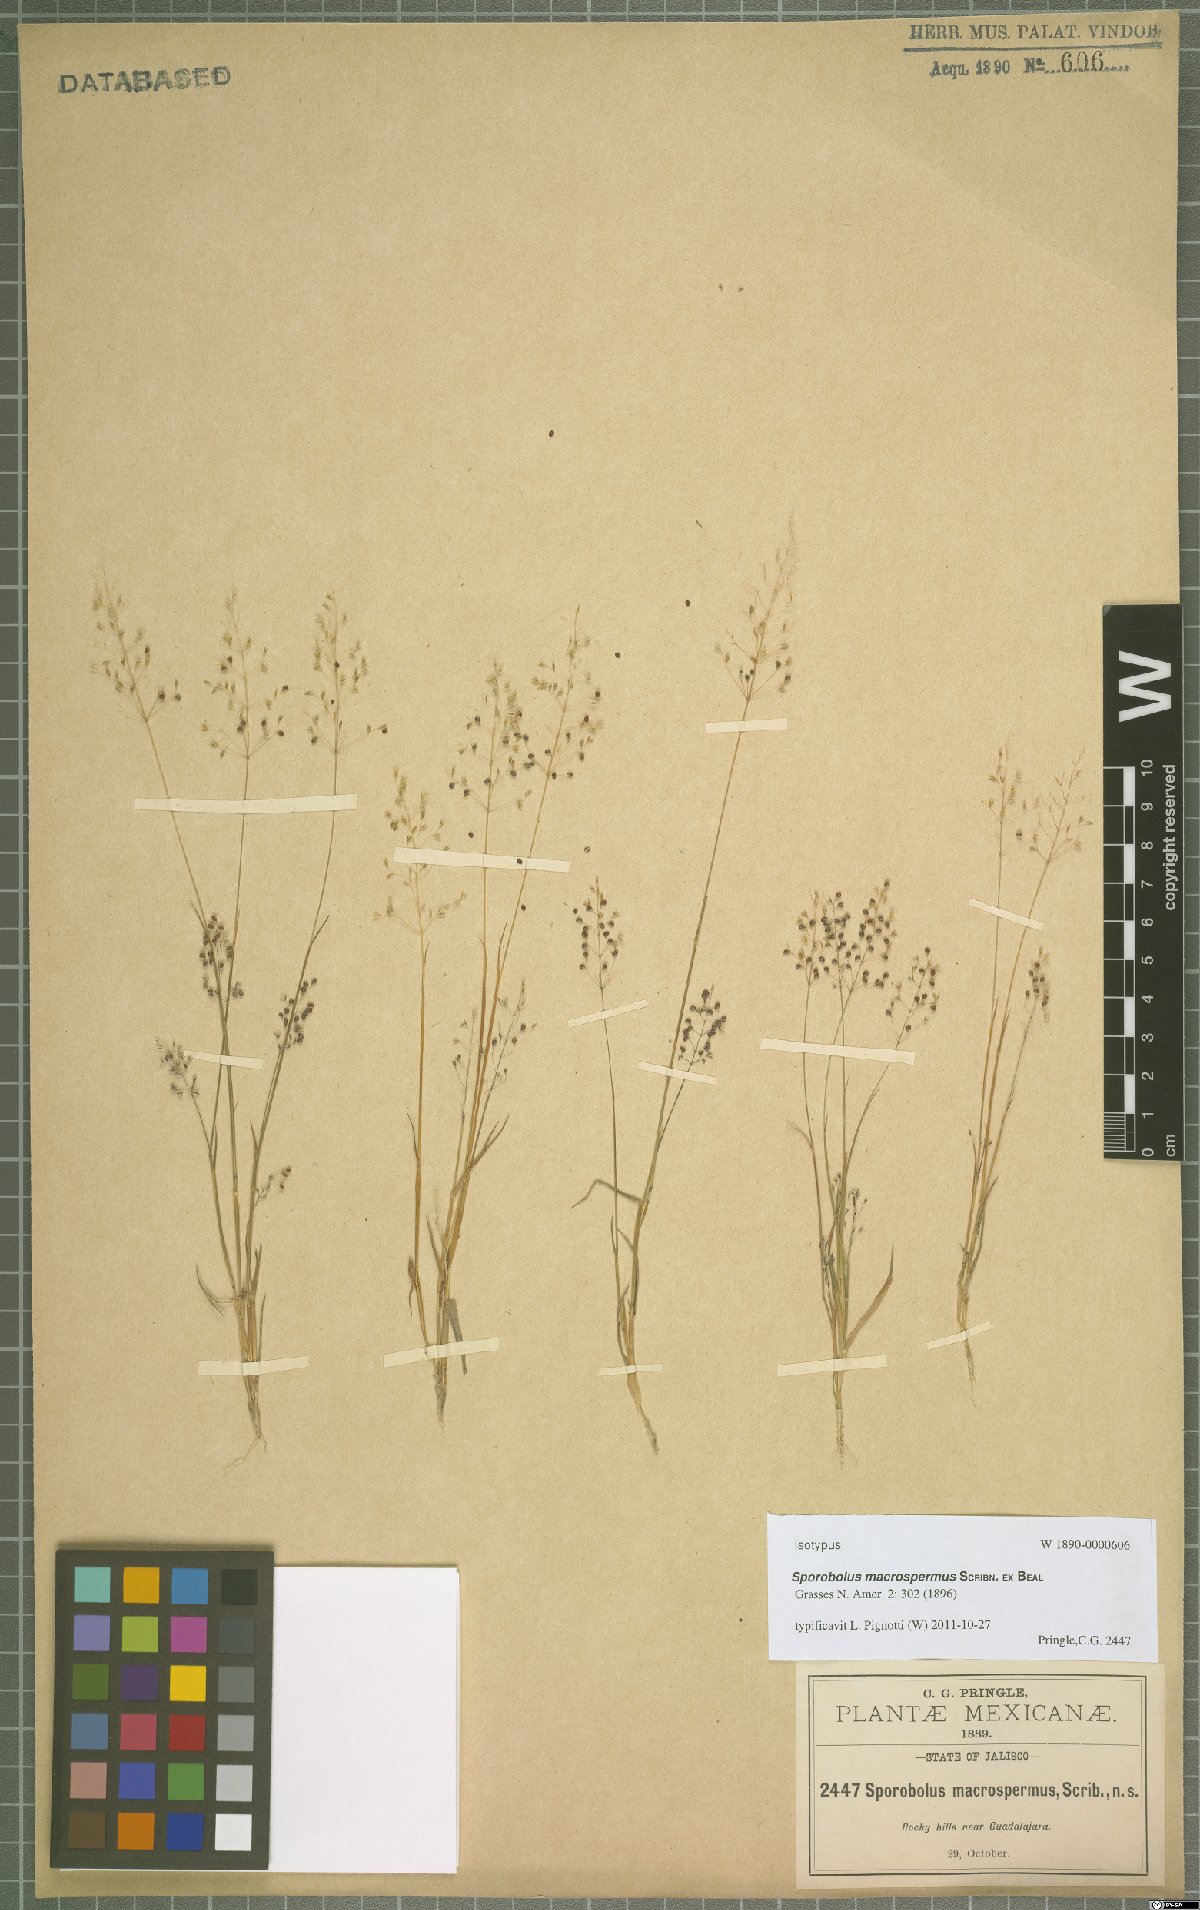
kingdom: Plantae
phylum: Tracheophyta
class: Liliopsida
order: Poales
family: Poaceae
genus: Sporobolus
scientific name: Sporobolus macrospermus
